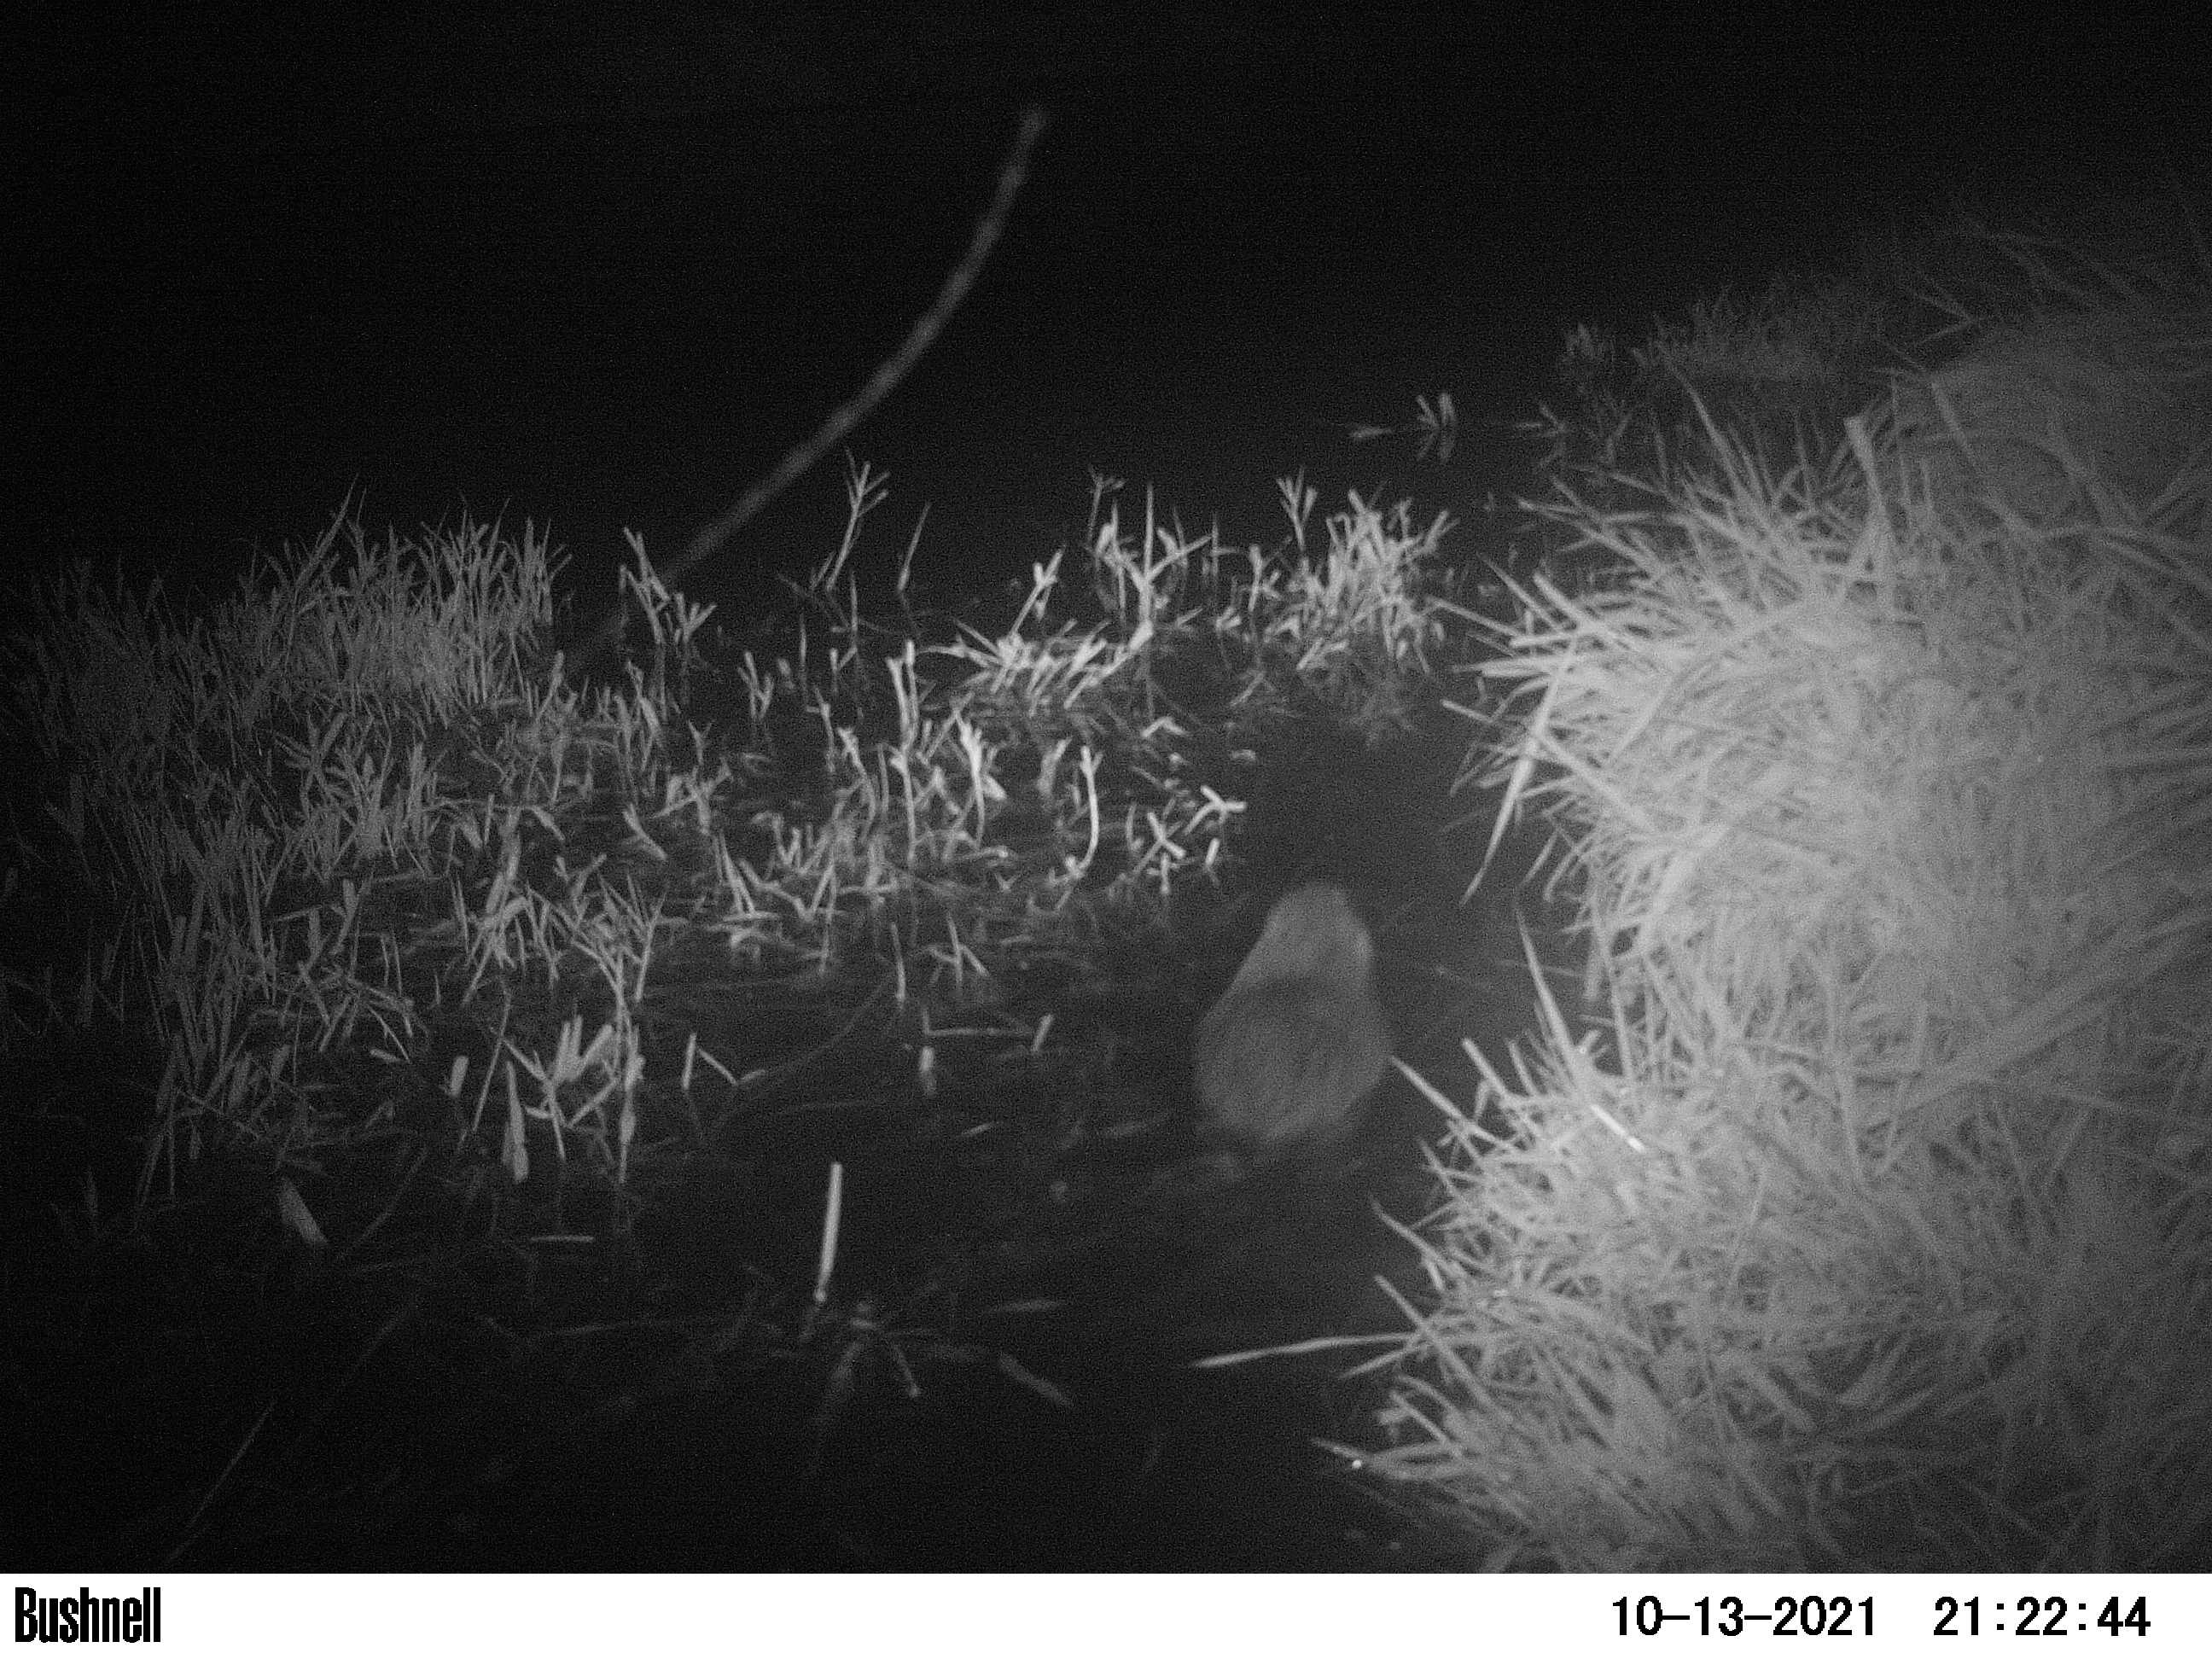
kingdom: Animalia
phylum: Chordata
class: Mammalia
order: Rodentia
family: Cricetidae
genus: Ondatra
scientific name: Ondatra zibethicus
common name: Muskrat
